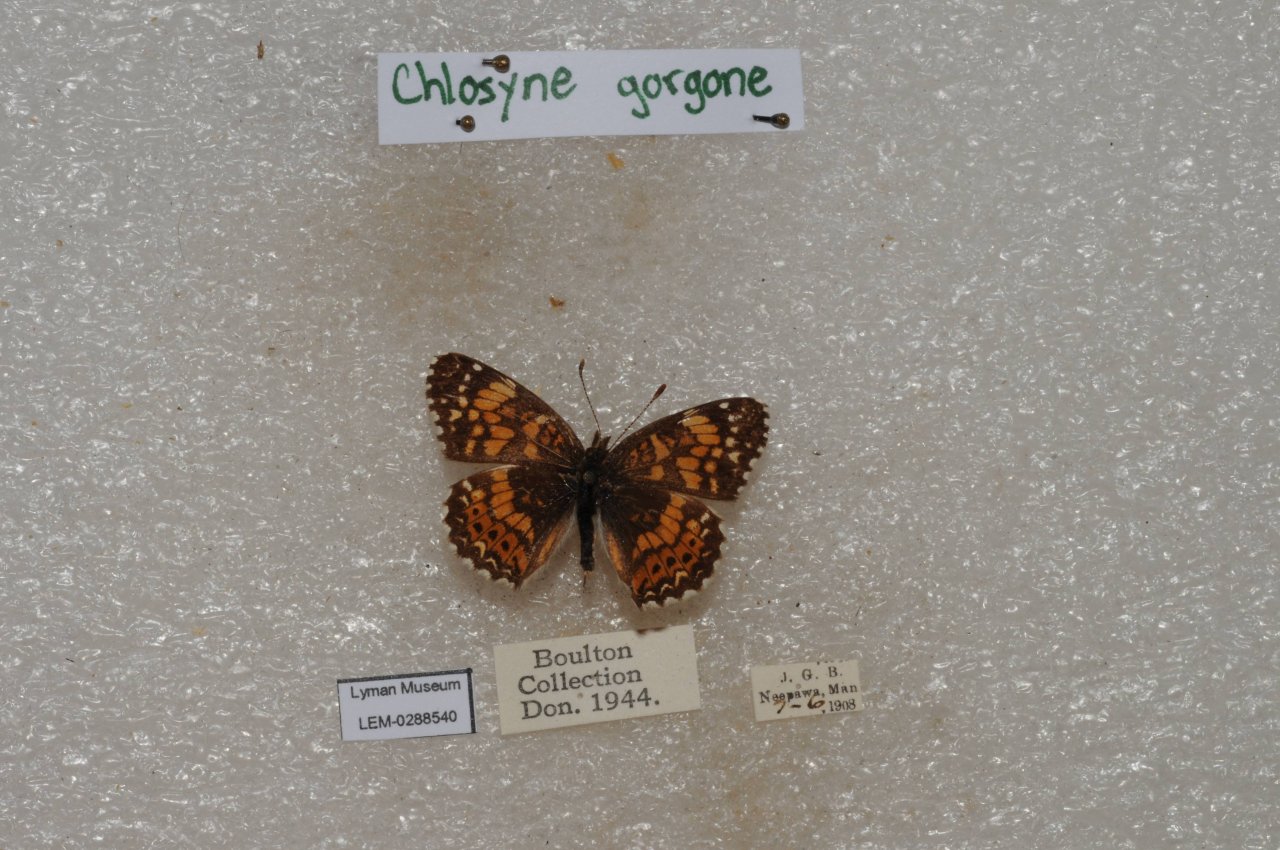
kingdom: Animalia
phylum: Arthropoda
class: Insecta
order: Lepidoptera
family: Nymphalidae
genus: Chlosyne
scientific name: Chlosyne gorgone
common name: Gorgone Checkerspot
